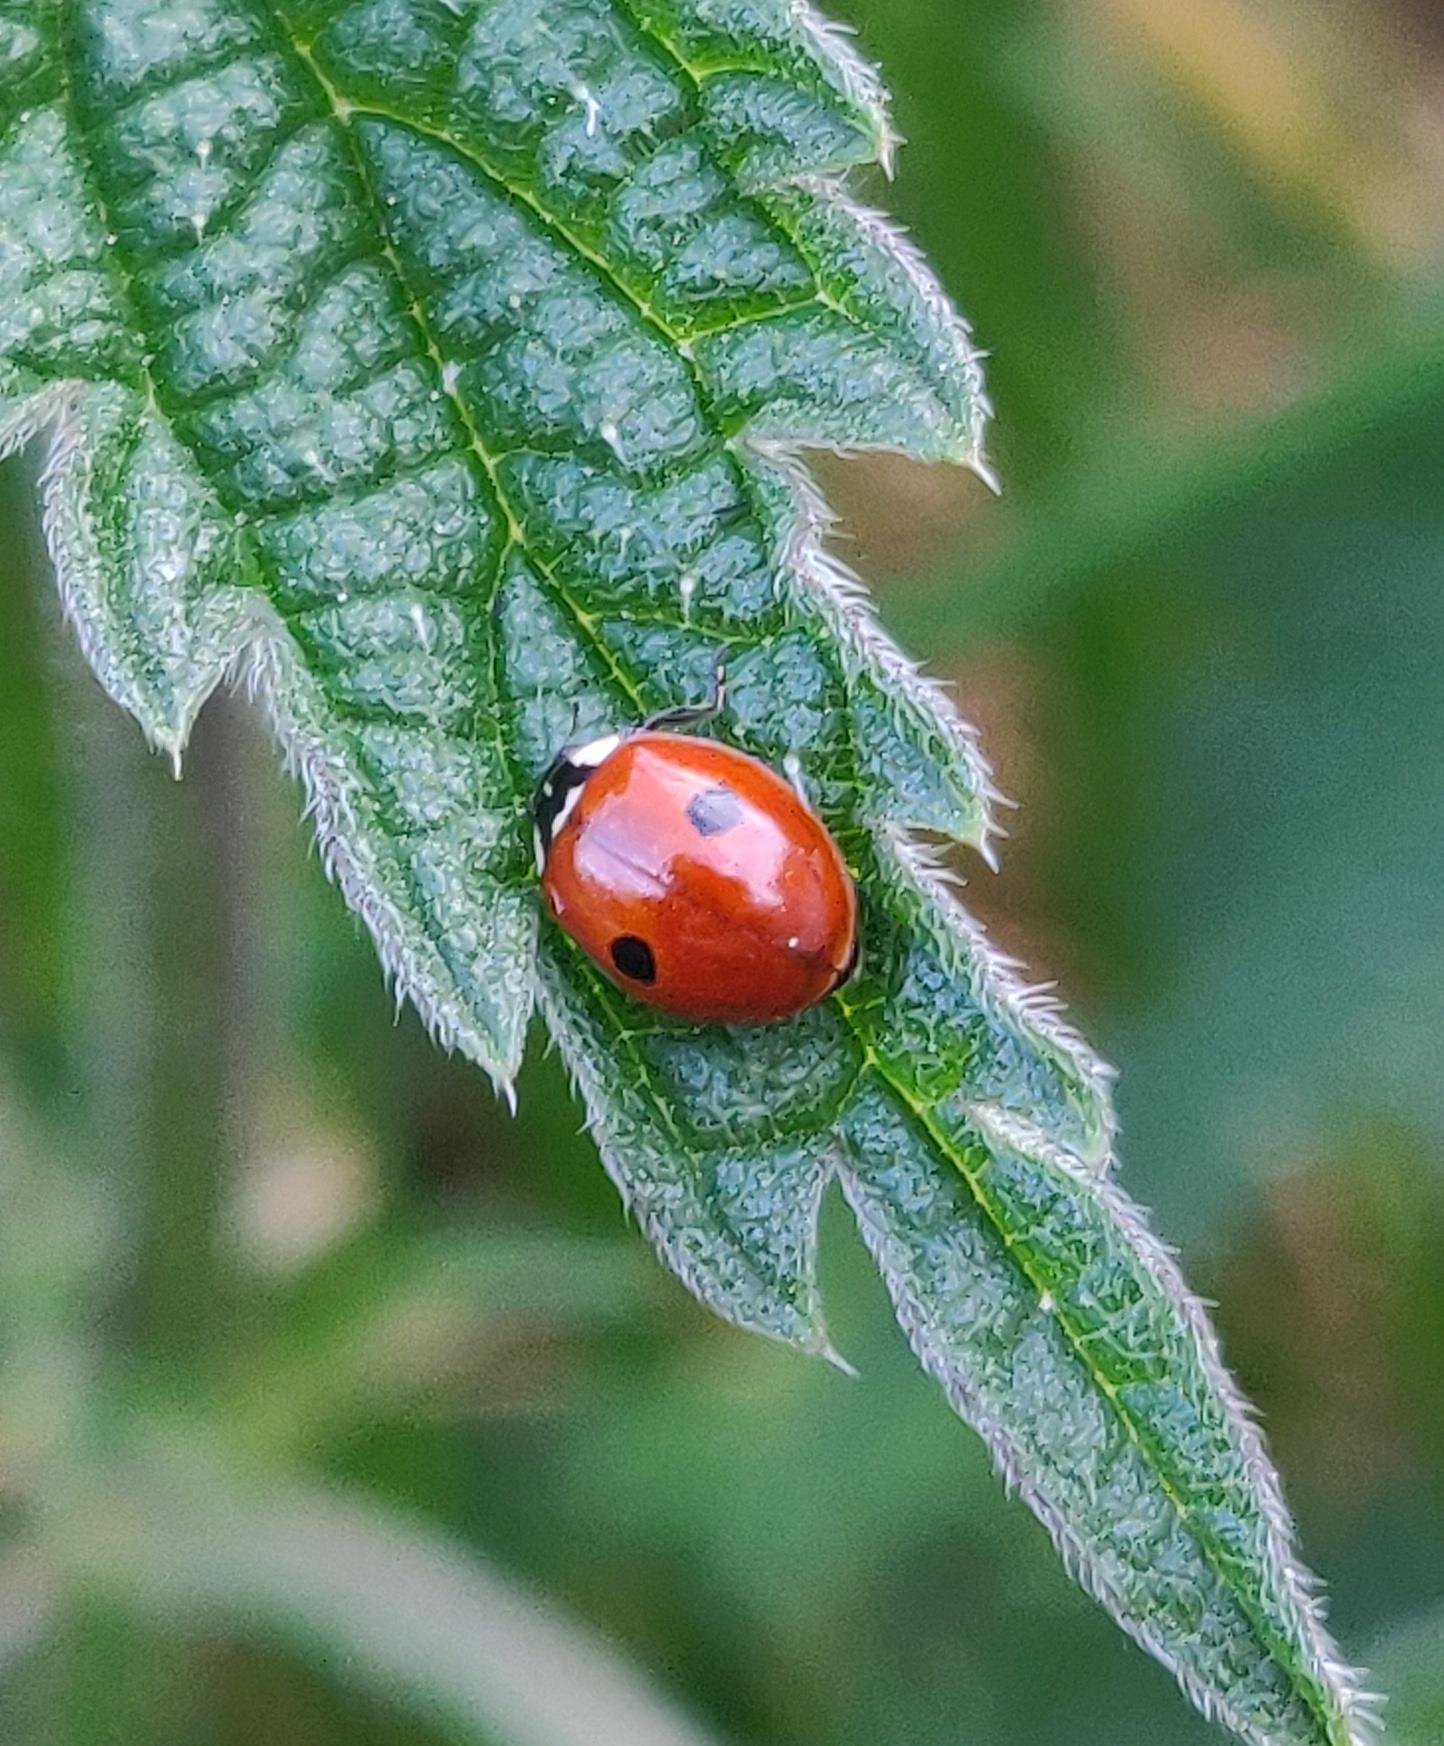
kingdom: Animalia
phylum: Arthropoda
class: Insecta
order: Coleoptera
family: Coccinellidae
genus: Adalia
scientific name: Adalia bipunctata
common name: Toplettet mariehøne
